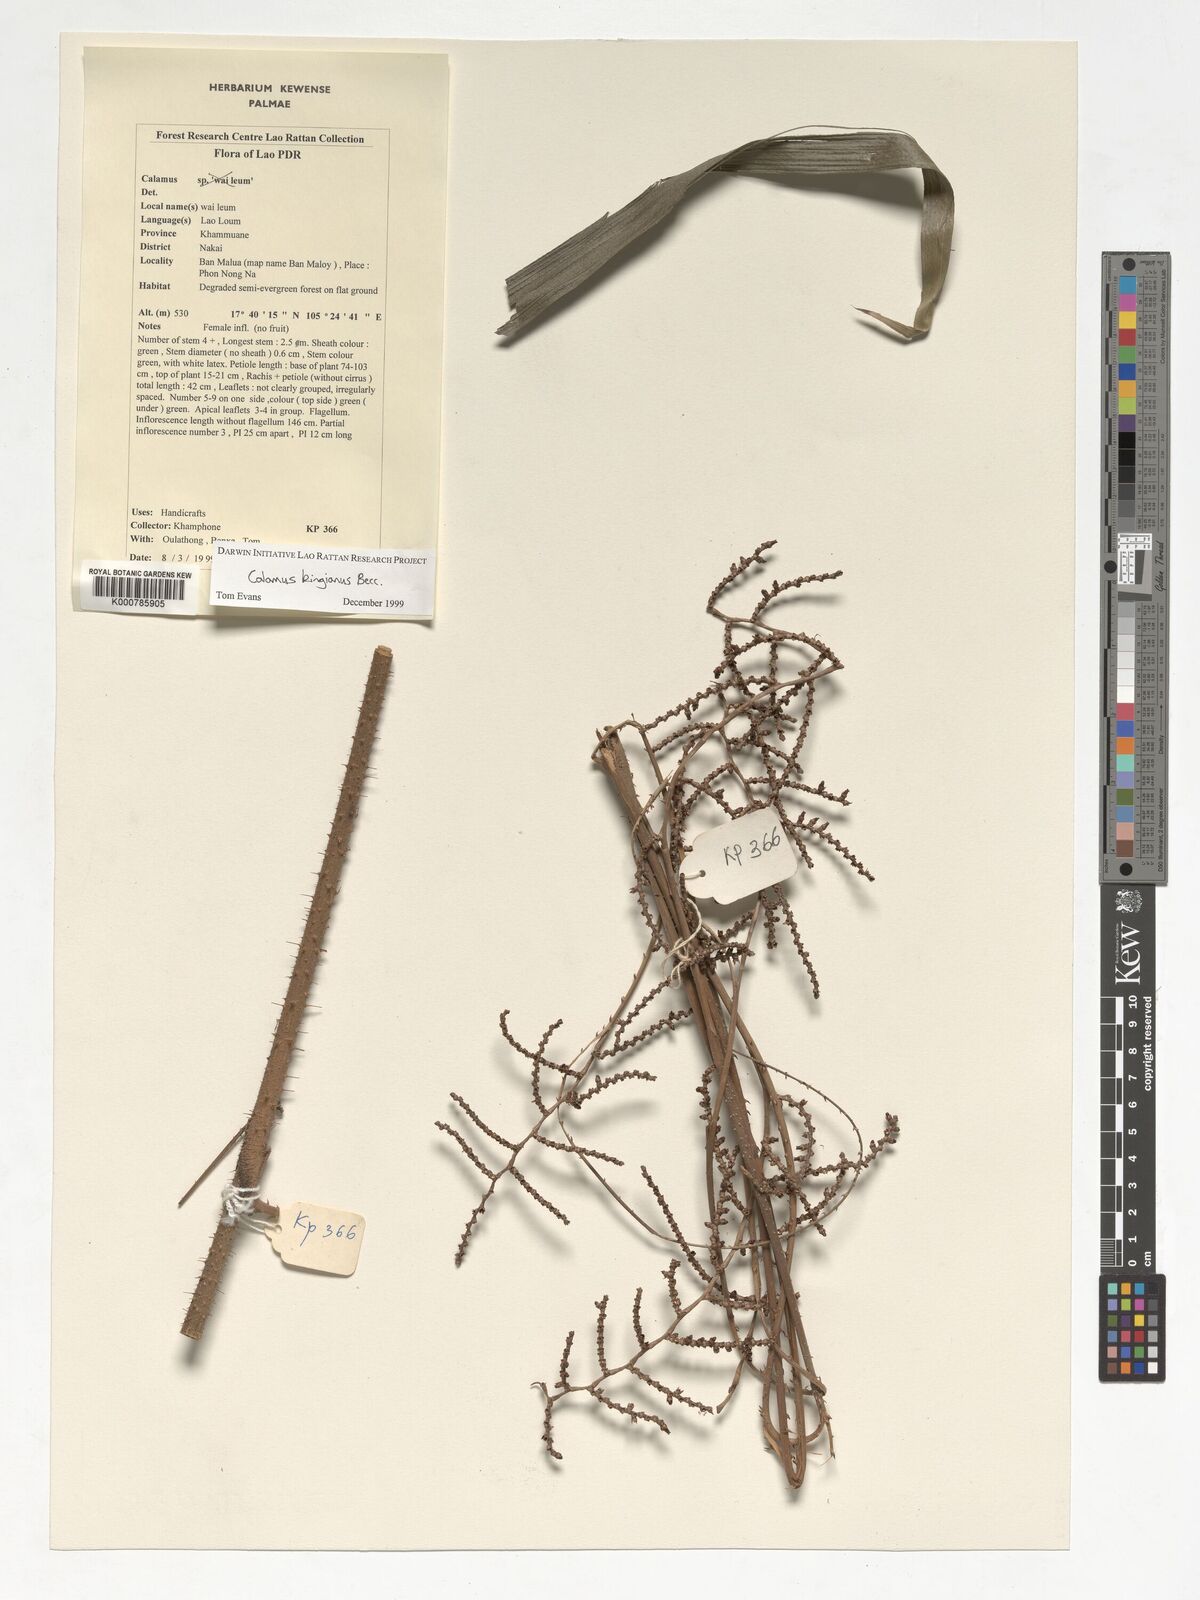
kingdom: Plantae
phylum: Tracheophyta
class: Liliopsida
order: Arecales
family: Arecaceae
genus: Calamus
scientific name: Calamus kingianus
